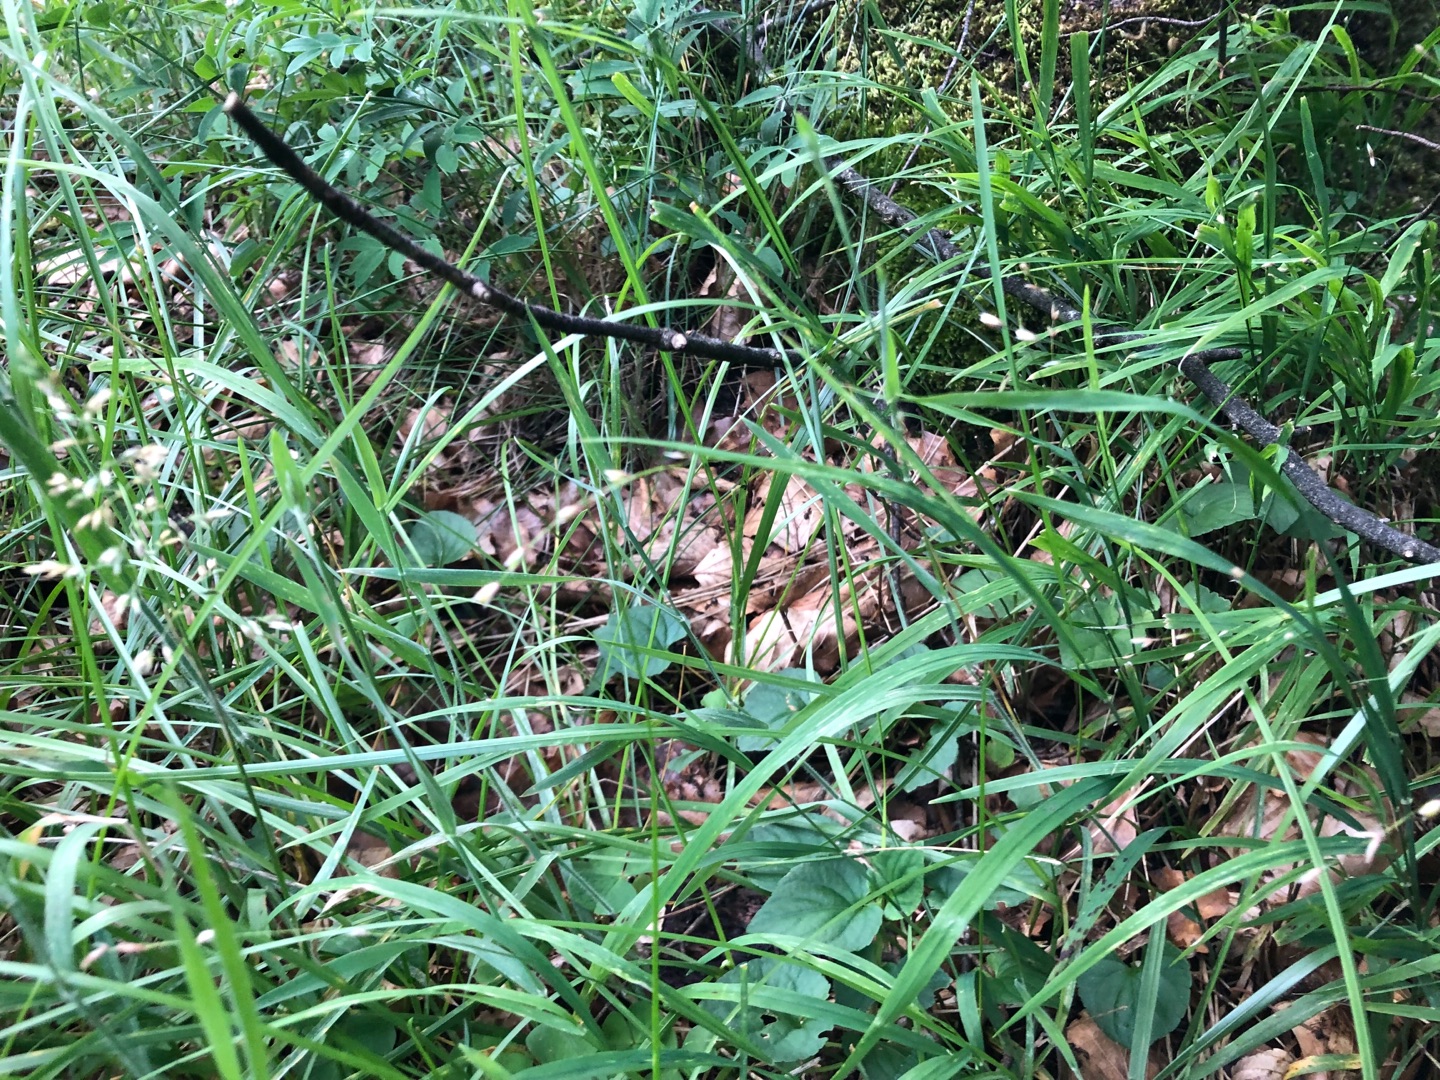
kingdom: Plantae
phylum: Tracheophyta
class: Liliopsida
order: Poales
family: Poaceae
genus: Melica
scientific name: Melica nutans
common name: Nikkende flitteraks
